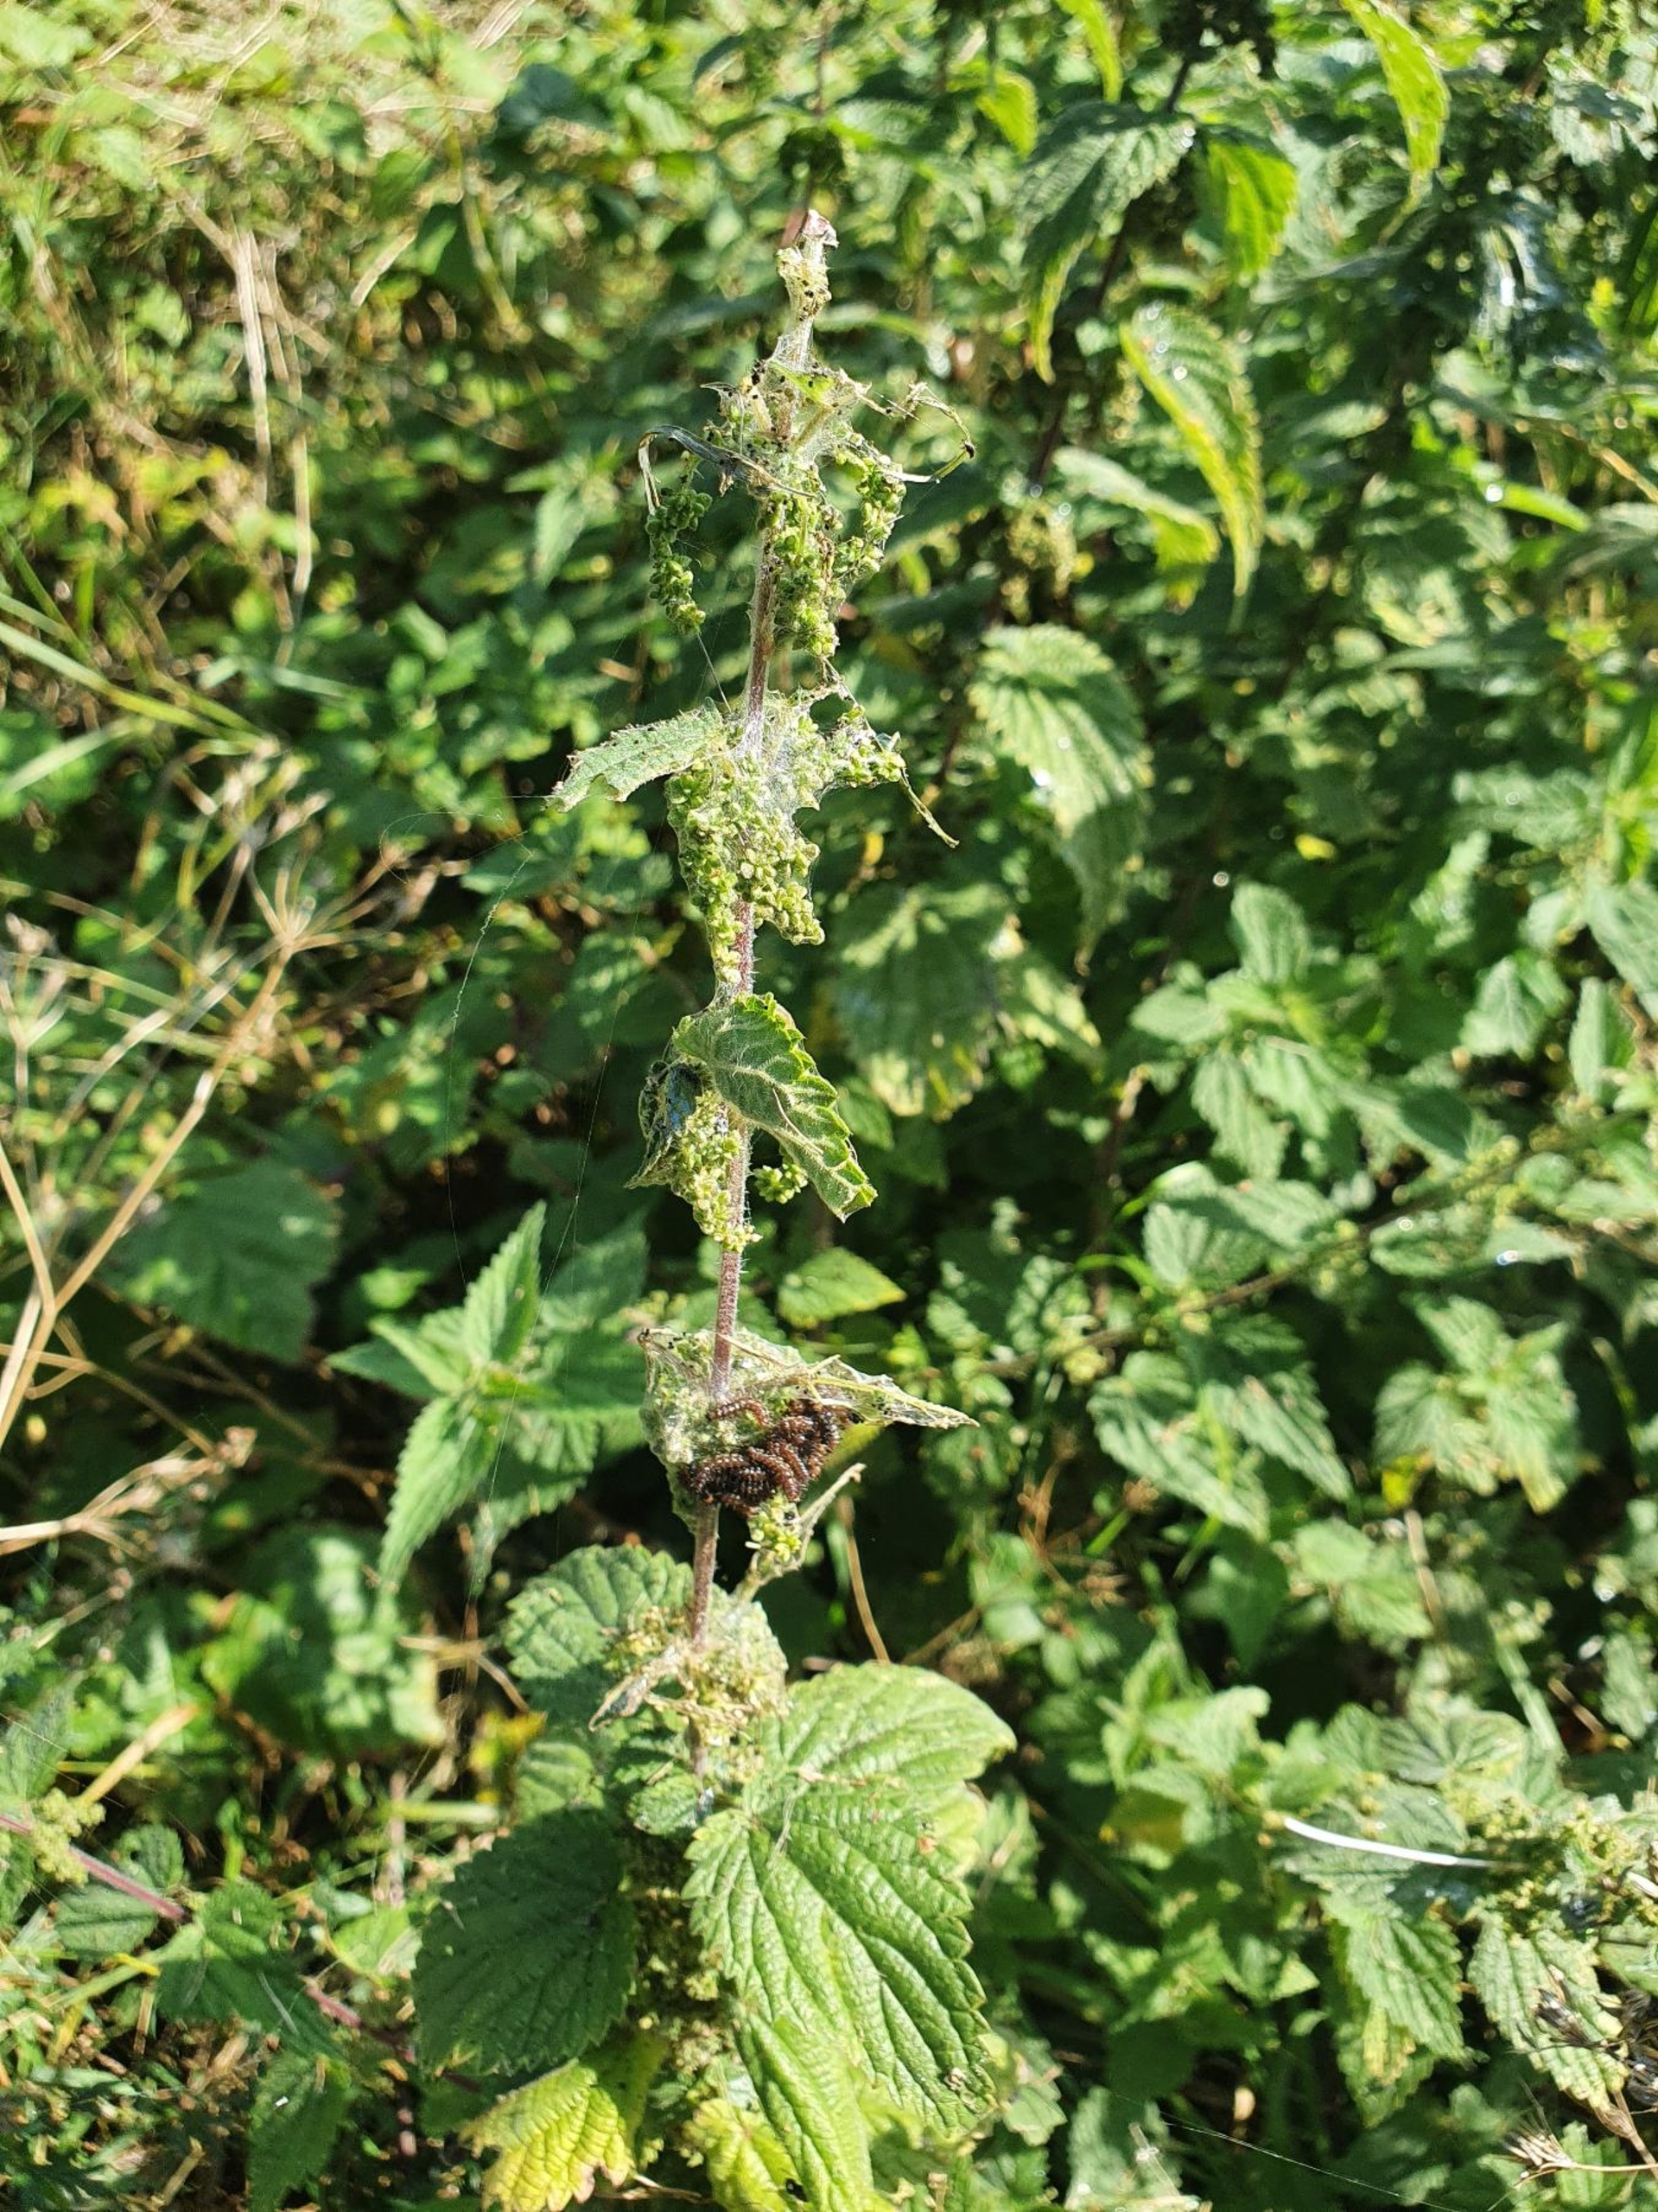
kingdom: Plantae
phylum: Tracheophyta
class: Magnoliopsida
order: Rosales
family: Urticaceae
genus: Urtica
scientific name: Urtica dioica
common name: Stor nælde
